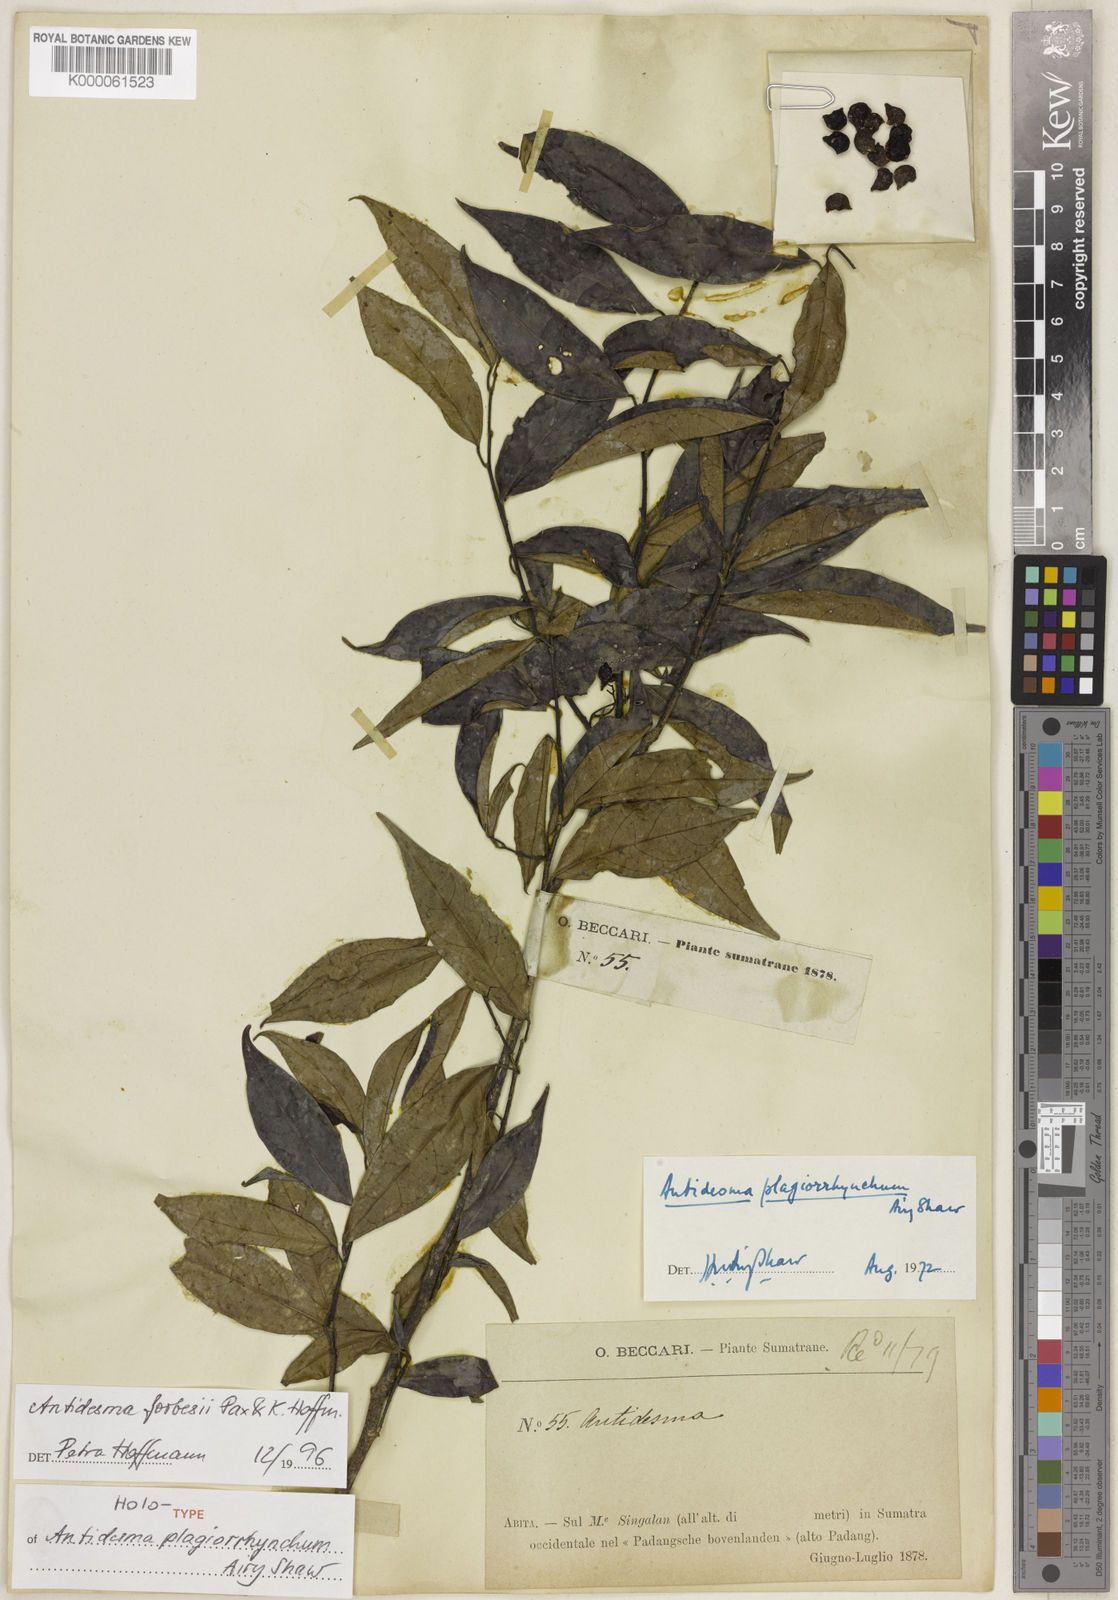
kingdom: Plantae
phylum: Tracheophyta
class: Magnoliopsida
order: Malpighiales
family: Phyllanthaceae
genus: Antidesma
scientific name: Antidesma forbesii
